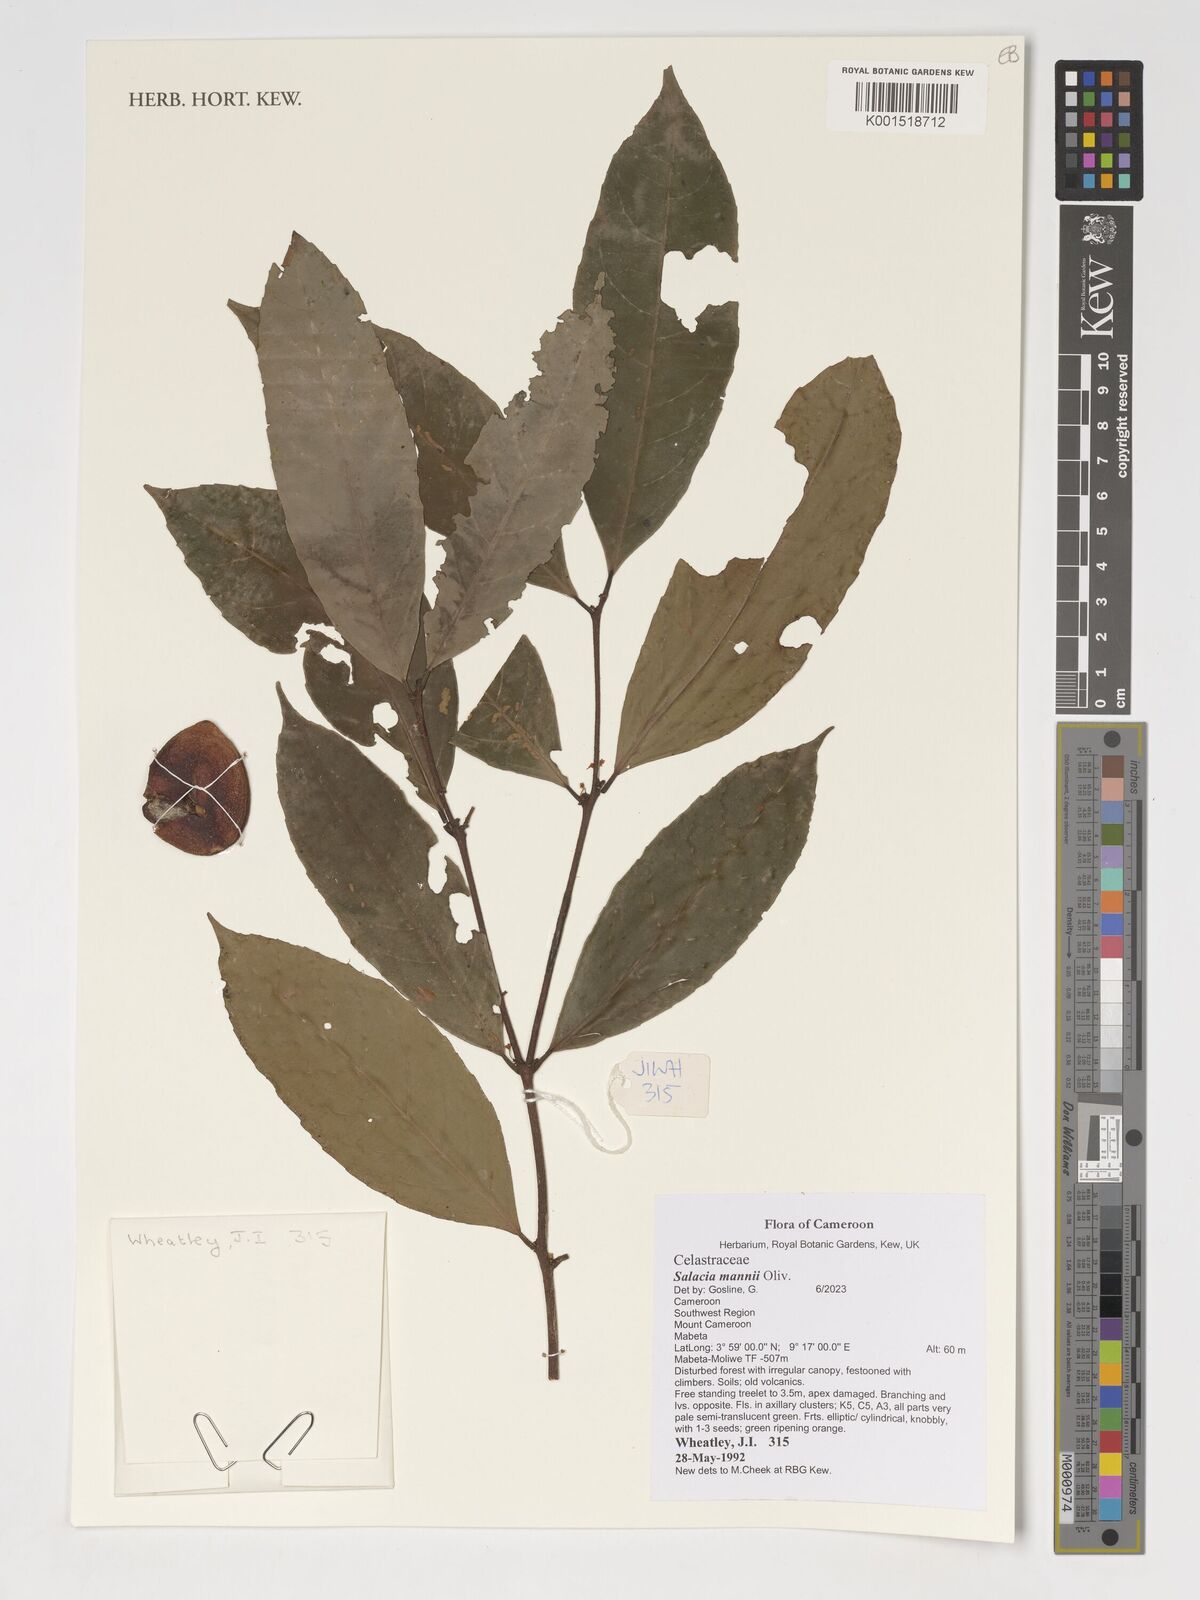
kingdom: Plantae
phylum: Tracheophyta
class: Magnoliopsida
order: Celastrales
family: Celastraceae
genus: Salacia
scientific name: Salacia mannii
